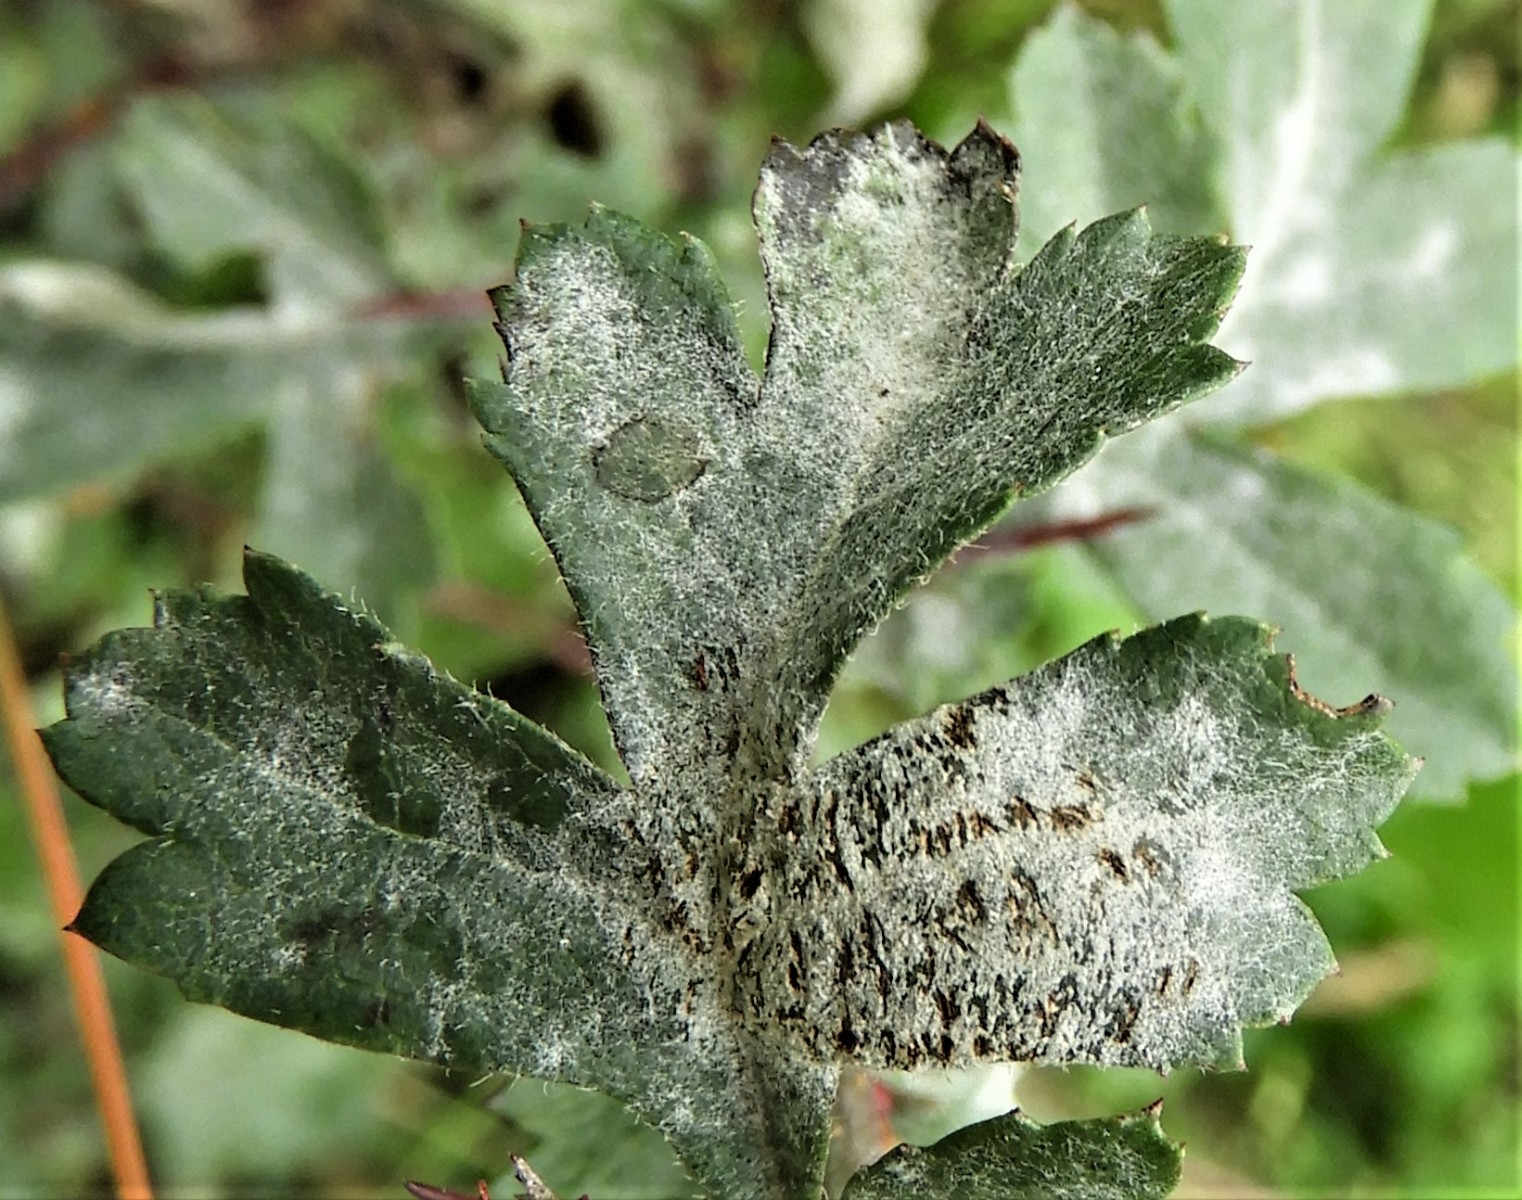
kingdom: Fungi
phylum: Ascomycota
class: Leotiomycetes
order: Helotiales
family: Erysiphaceae
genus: Podosphaera
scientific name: Podosphaera clandestina
